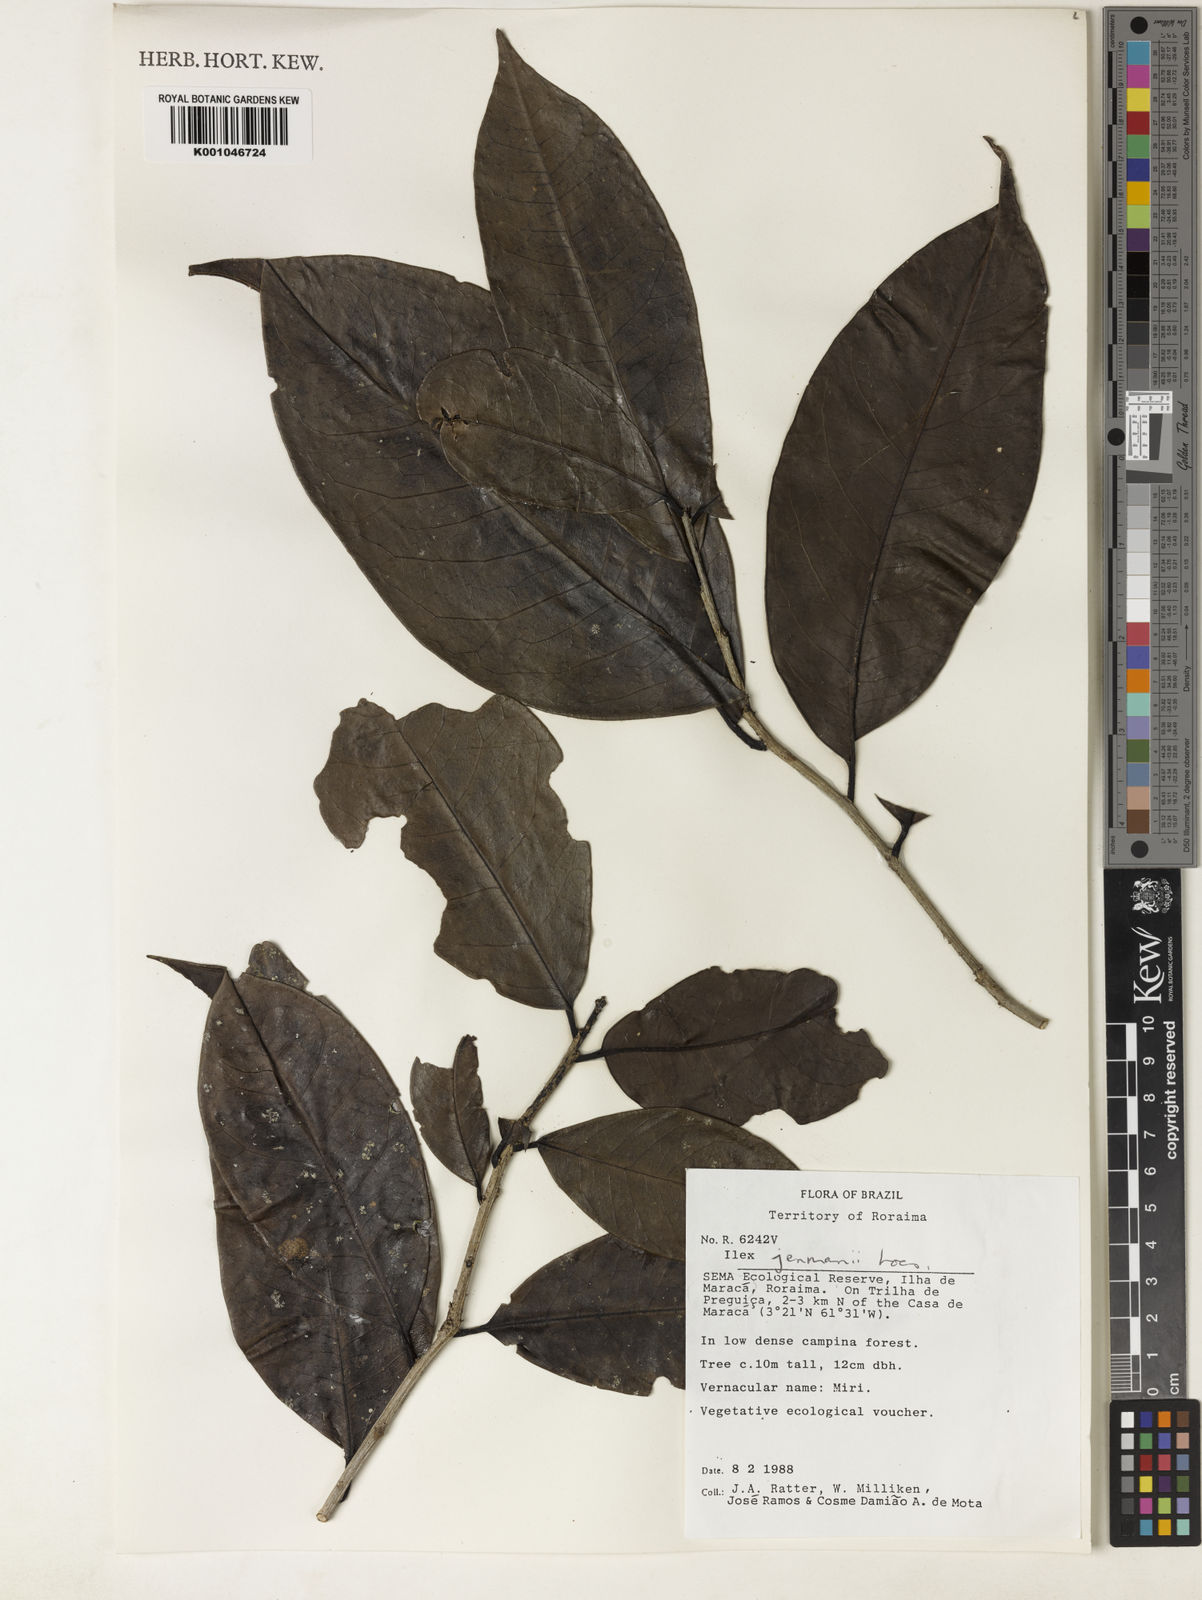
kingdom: Plantae
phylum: Tracheophyta
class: Magnoliopsida
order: Aquifoliales
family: Aquifoliaceae
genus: Ilex
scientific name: Ilex jenmanii
